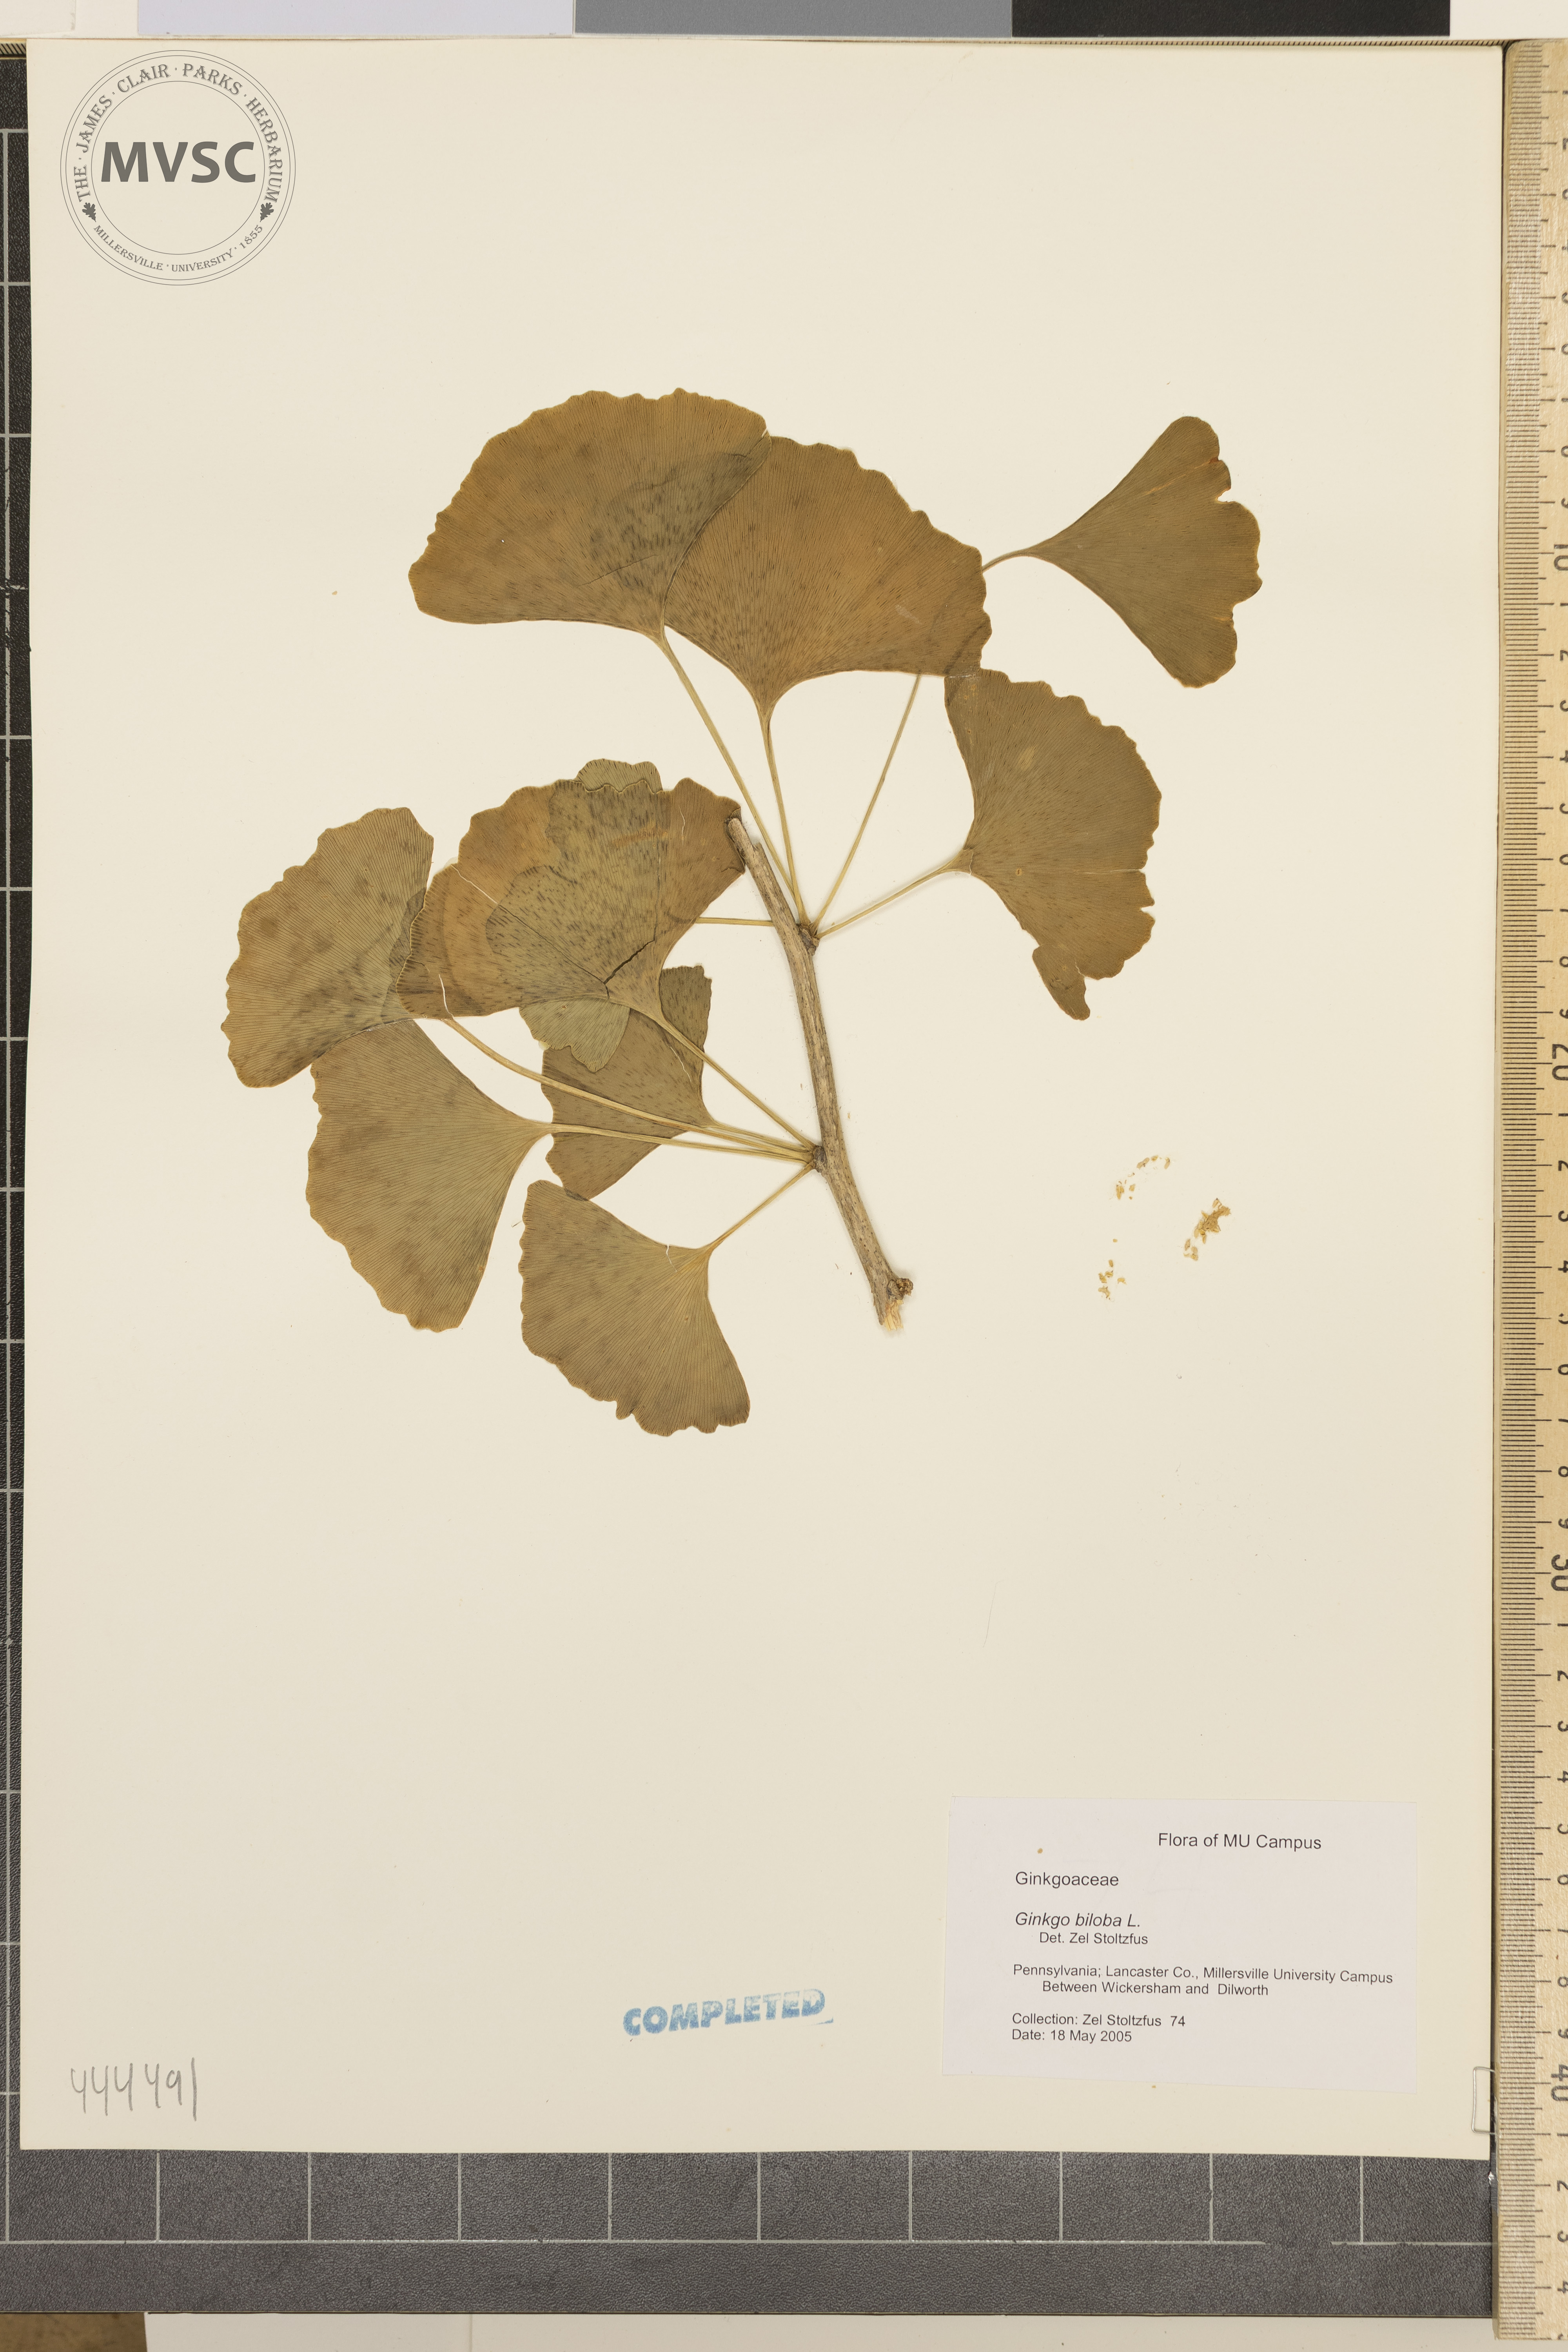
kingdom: Plantae
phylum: Tracheophyta
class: Ginkgoopsida
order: Ginkgoales
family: Ginkgoaceae
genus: Ginkgo
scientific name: Ginkgo biloba
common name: Ginkgo
